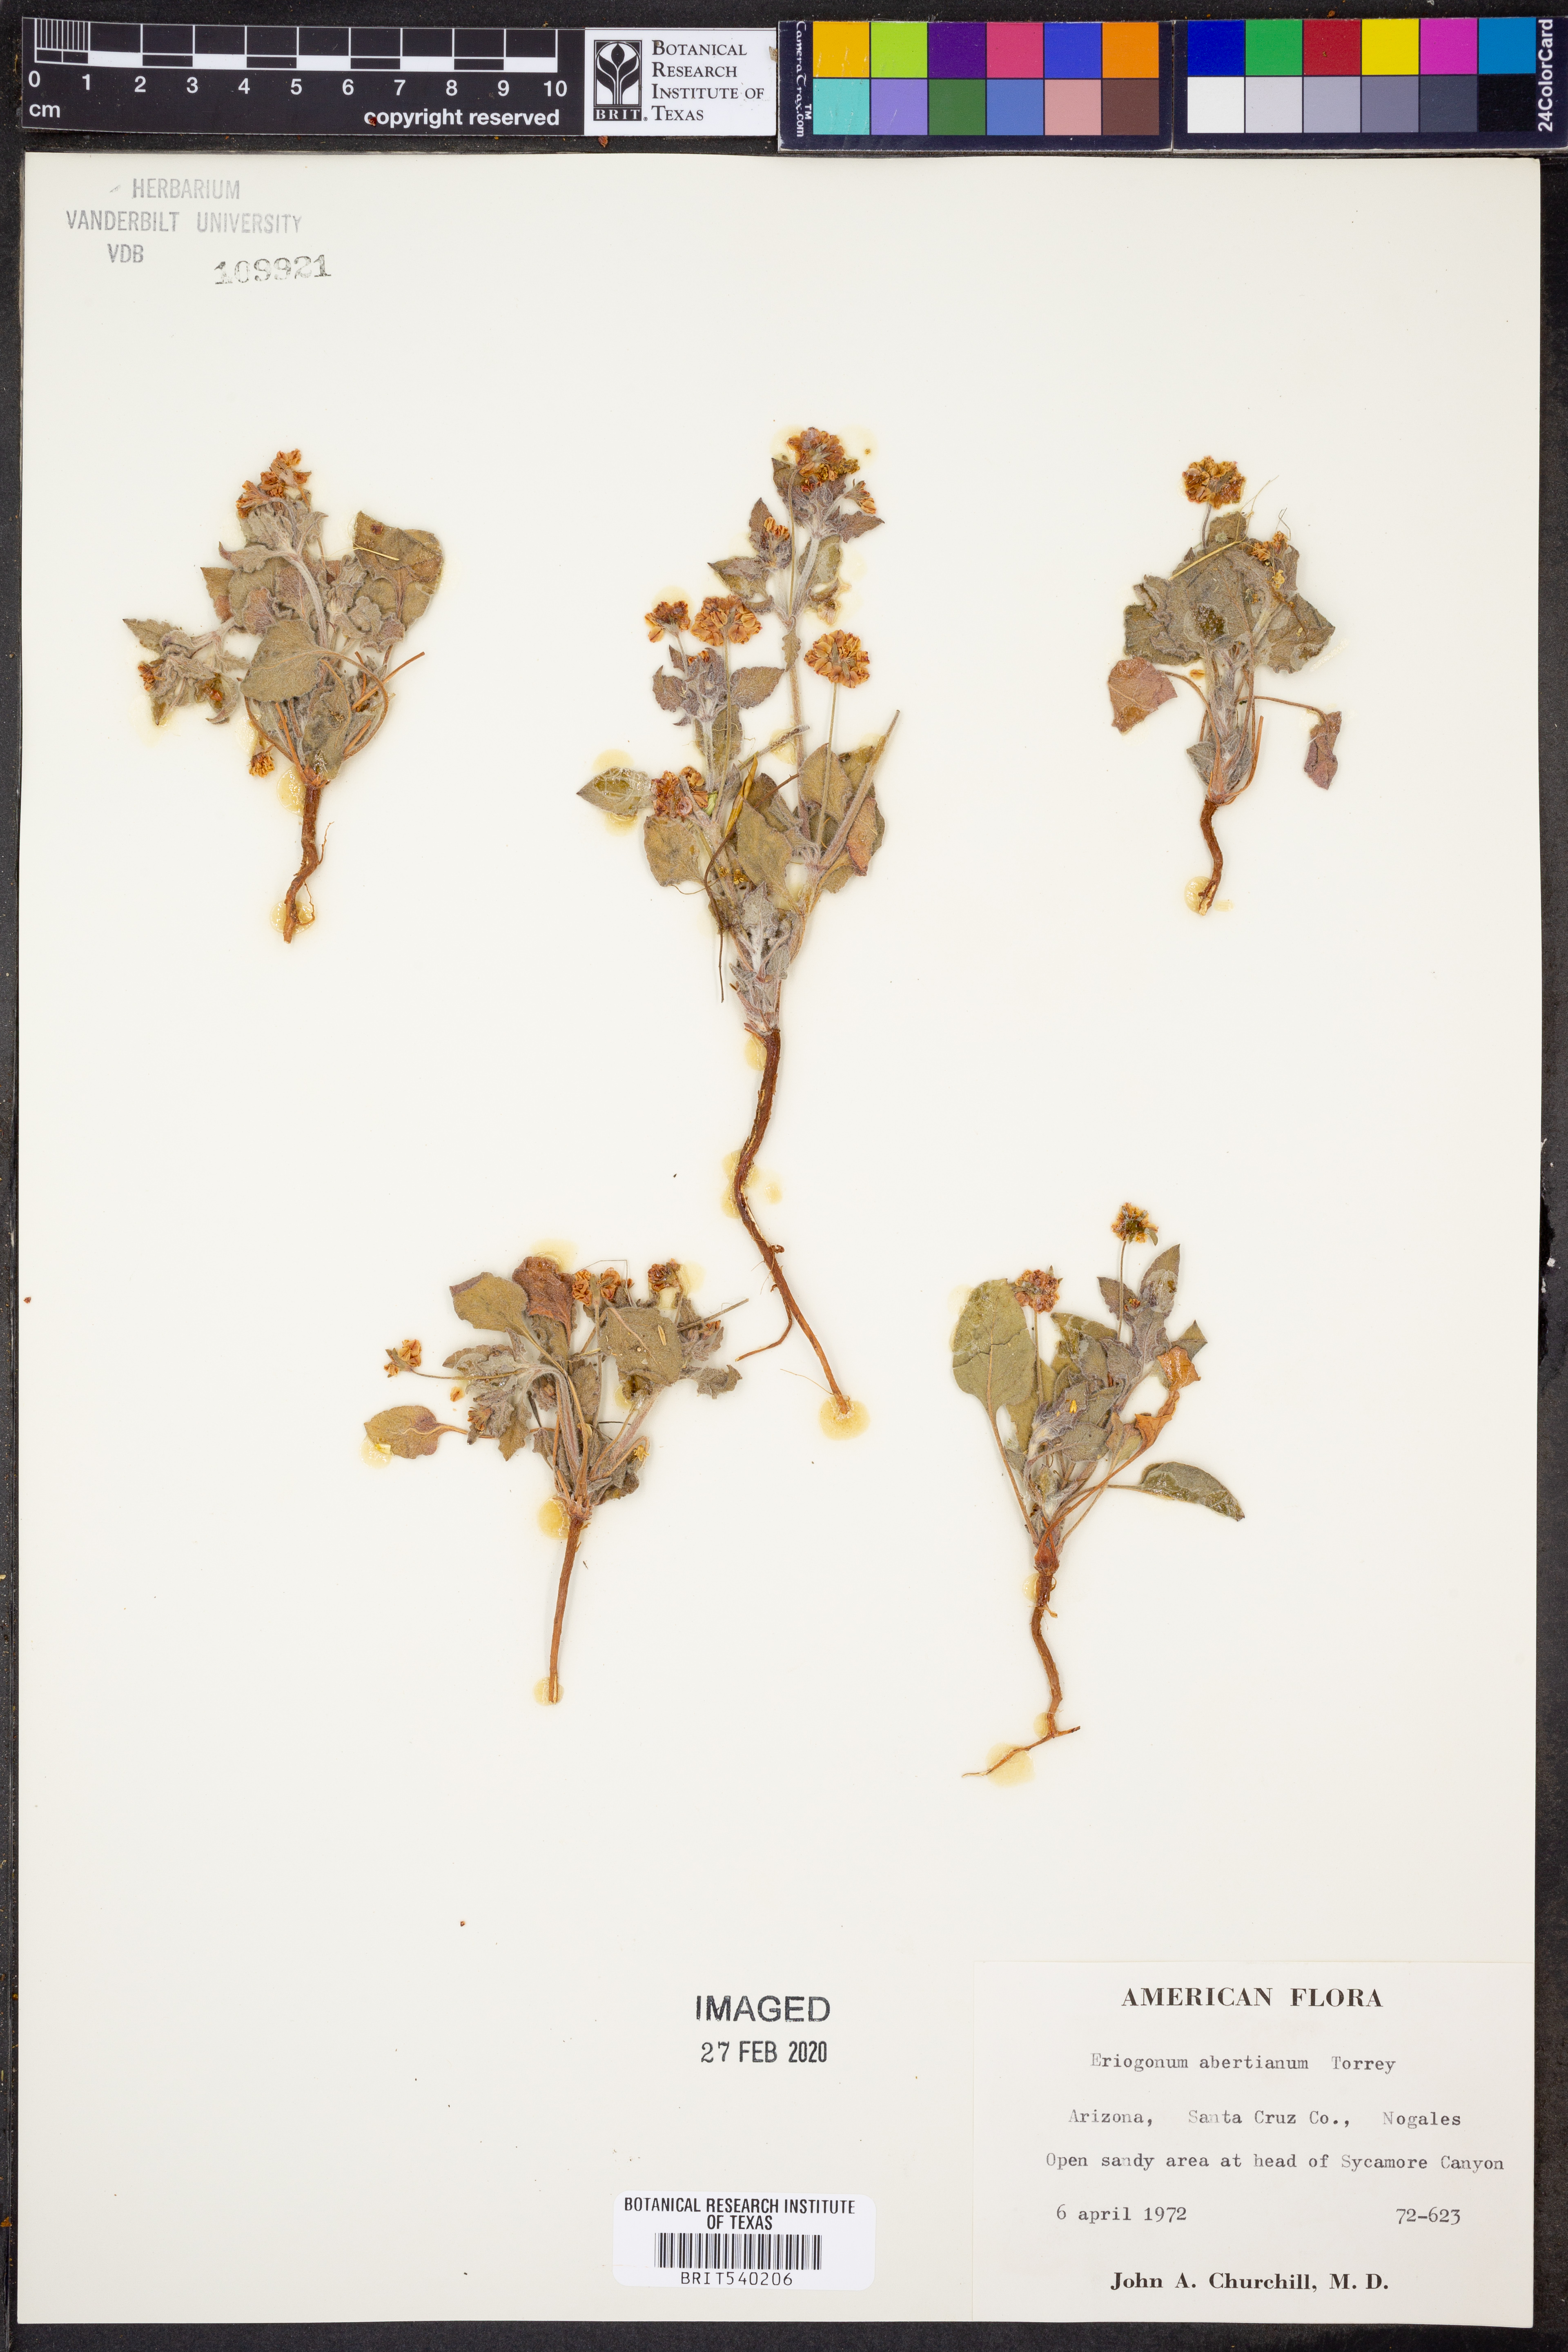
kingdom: Plantae
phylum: Tracheophyta
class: Magnoliopsida
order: Caryophyllales
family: Polygonaceae
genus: Eriogonum
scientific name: Eriogonum abertianum
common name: Abert's wild buckwheat
